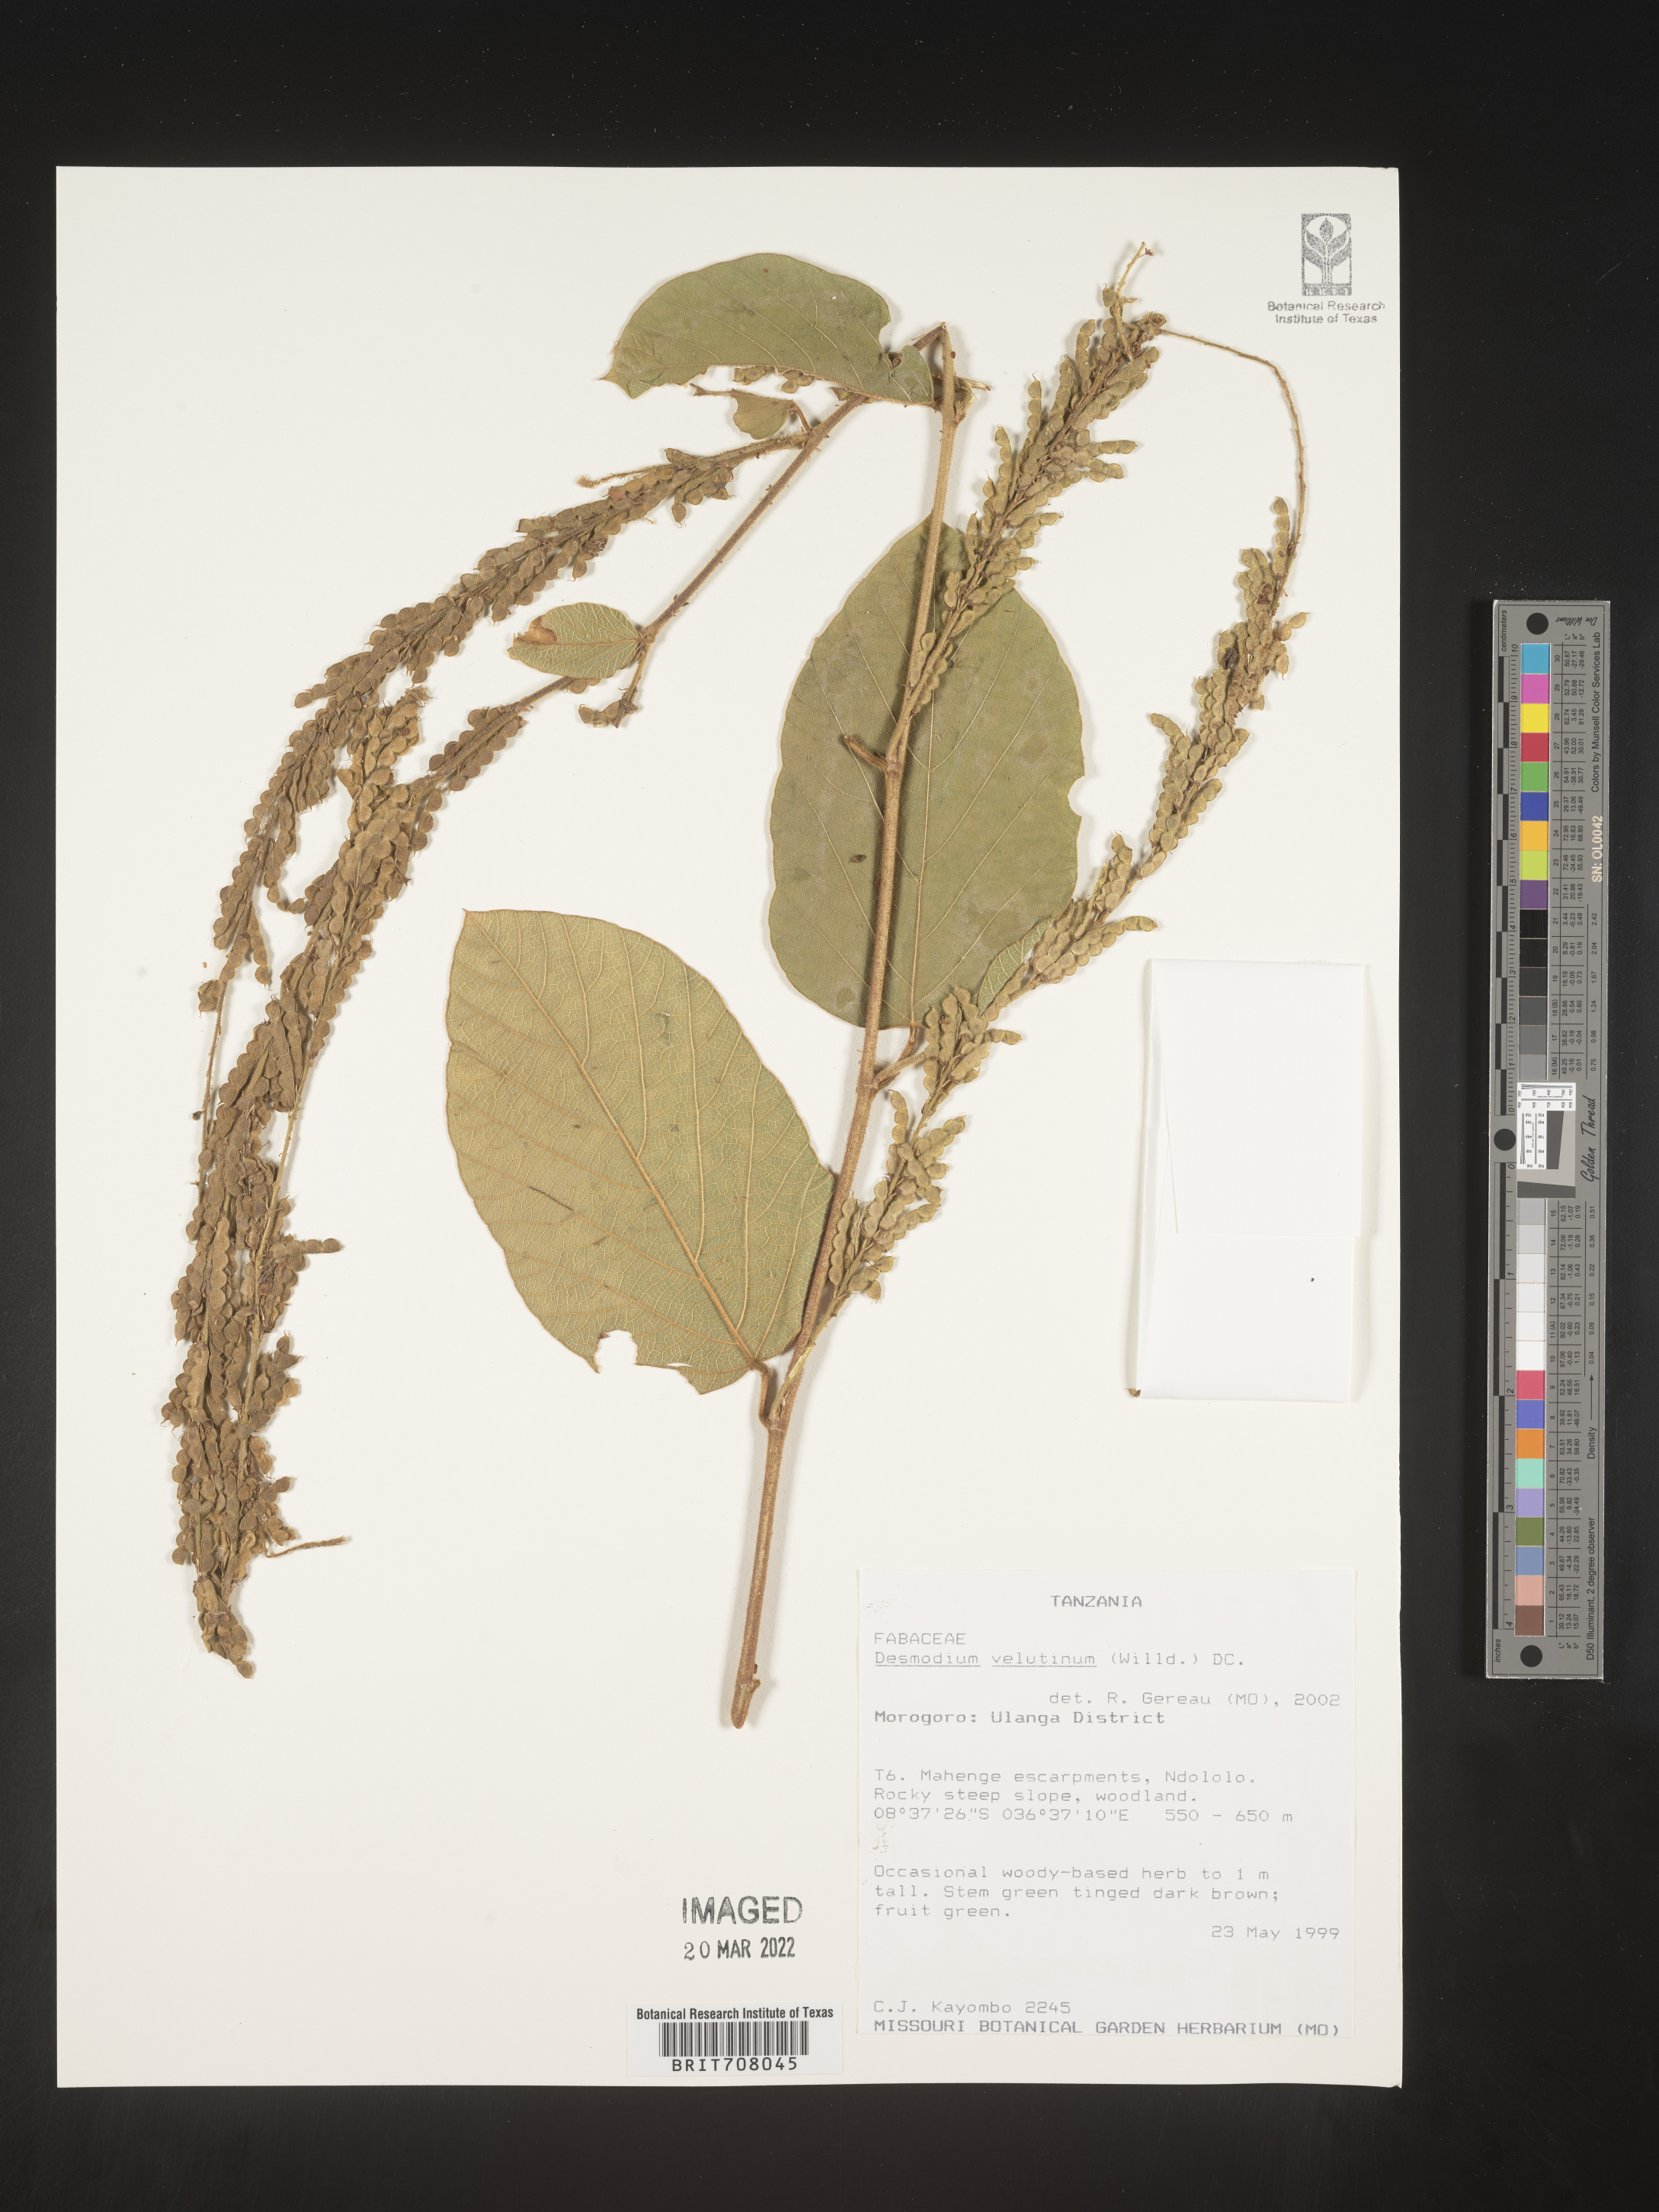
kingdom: Plantae
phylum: Tracheophyta
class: Magnoliopsida
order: Fabales
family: Fabaceae
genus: Desmodium
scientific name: Desmodium
